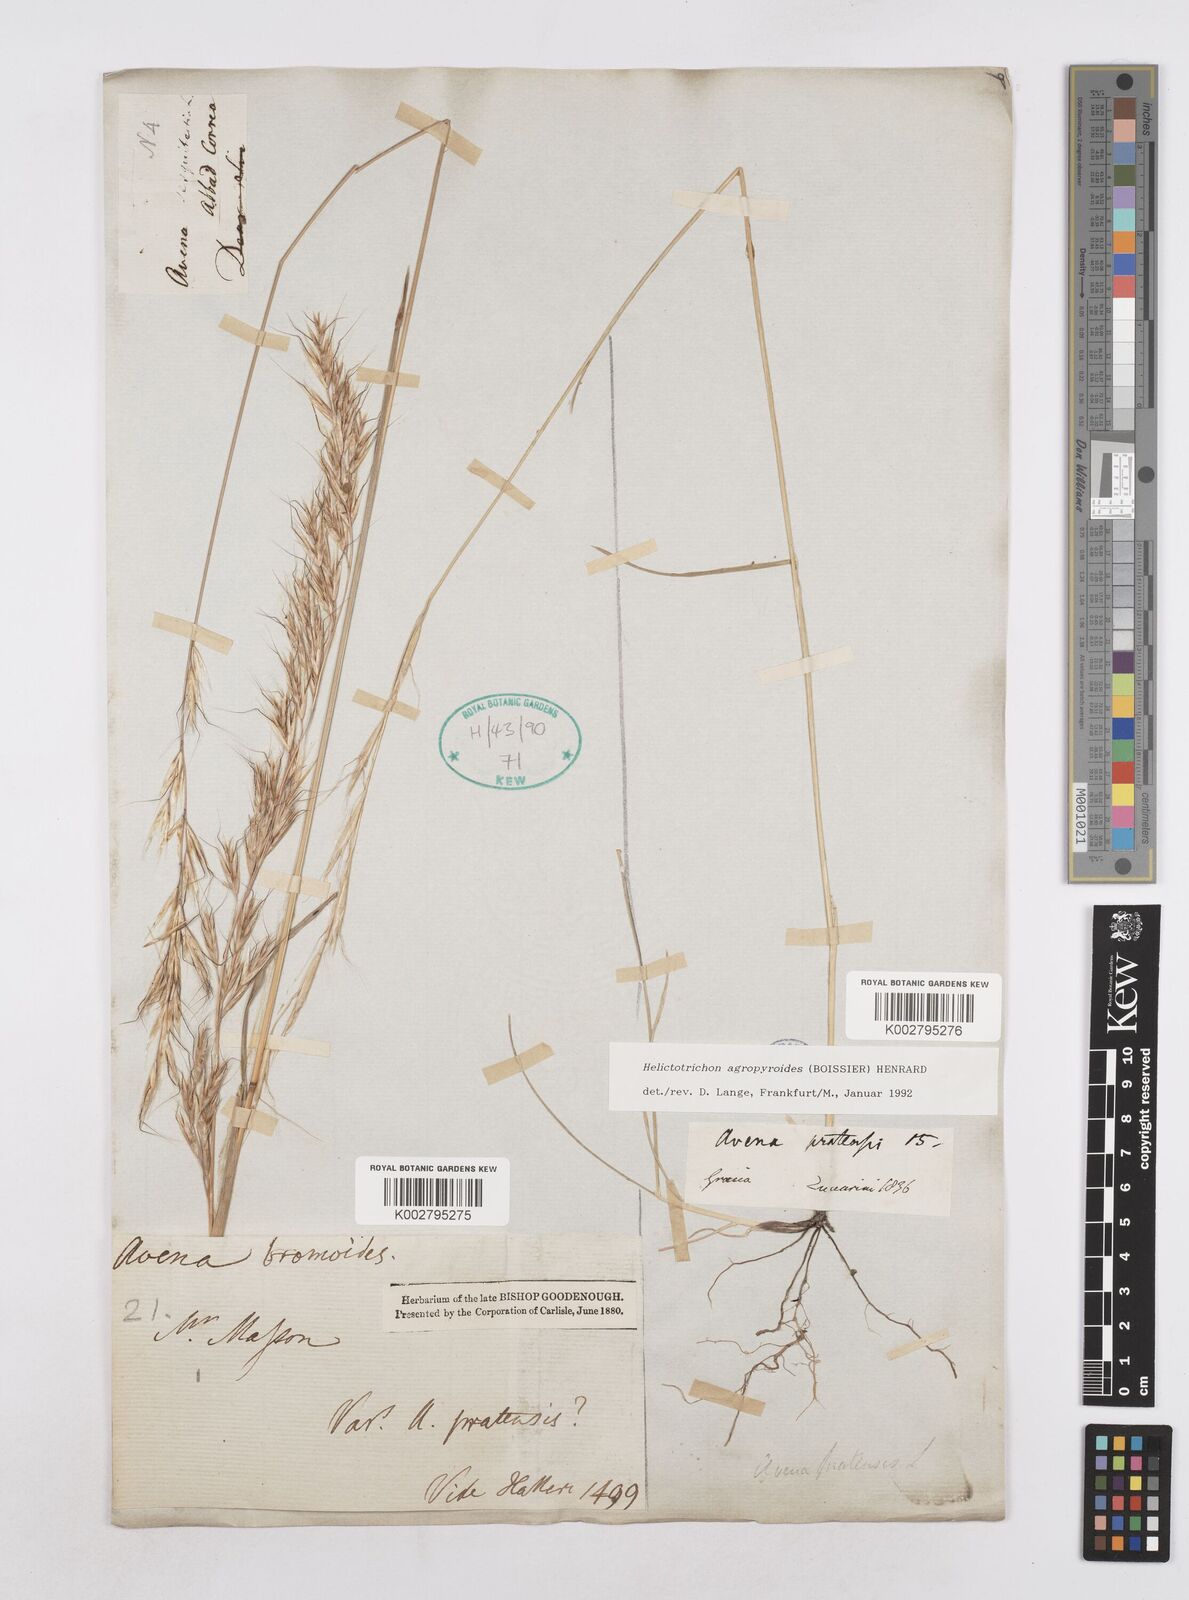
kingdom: Plantae
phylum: Tracheophyta
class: Liliopsida
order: Poales
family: Poaceae
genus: Helictochloa
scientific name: Helictochloa agropyroides
